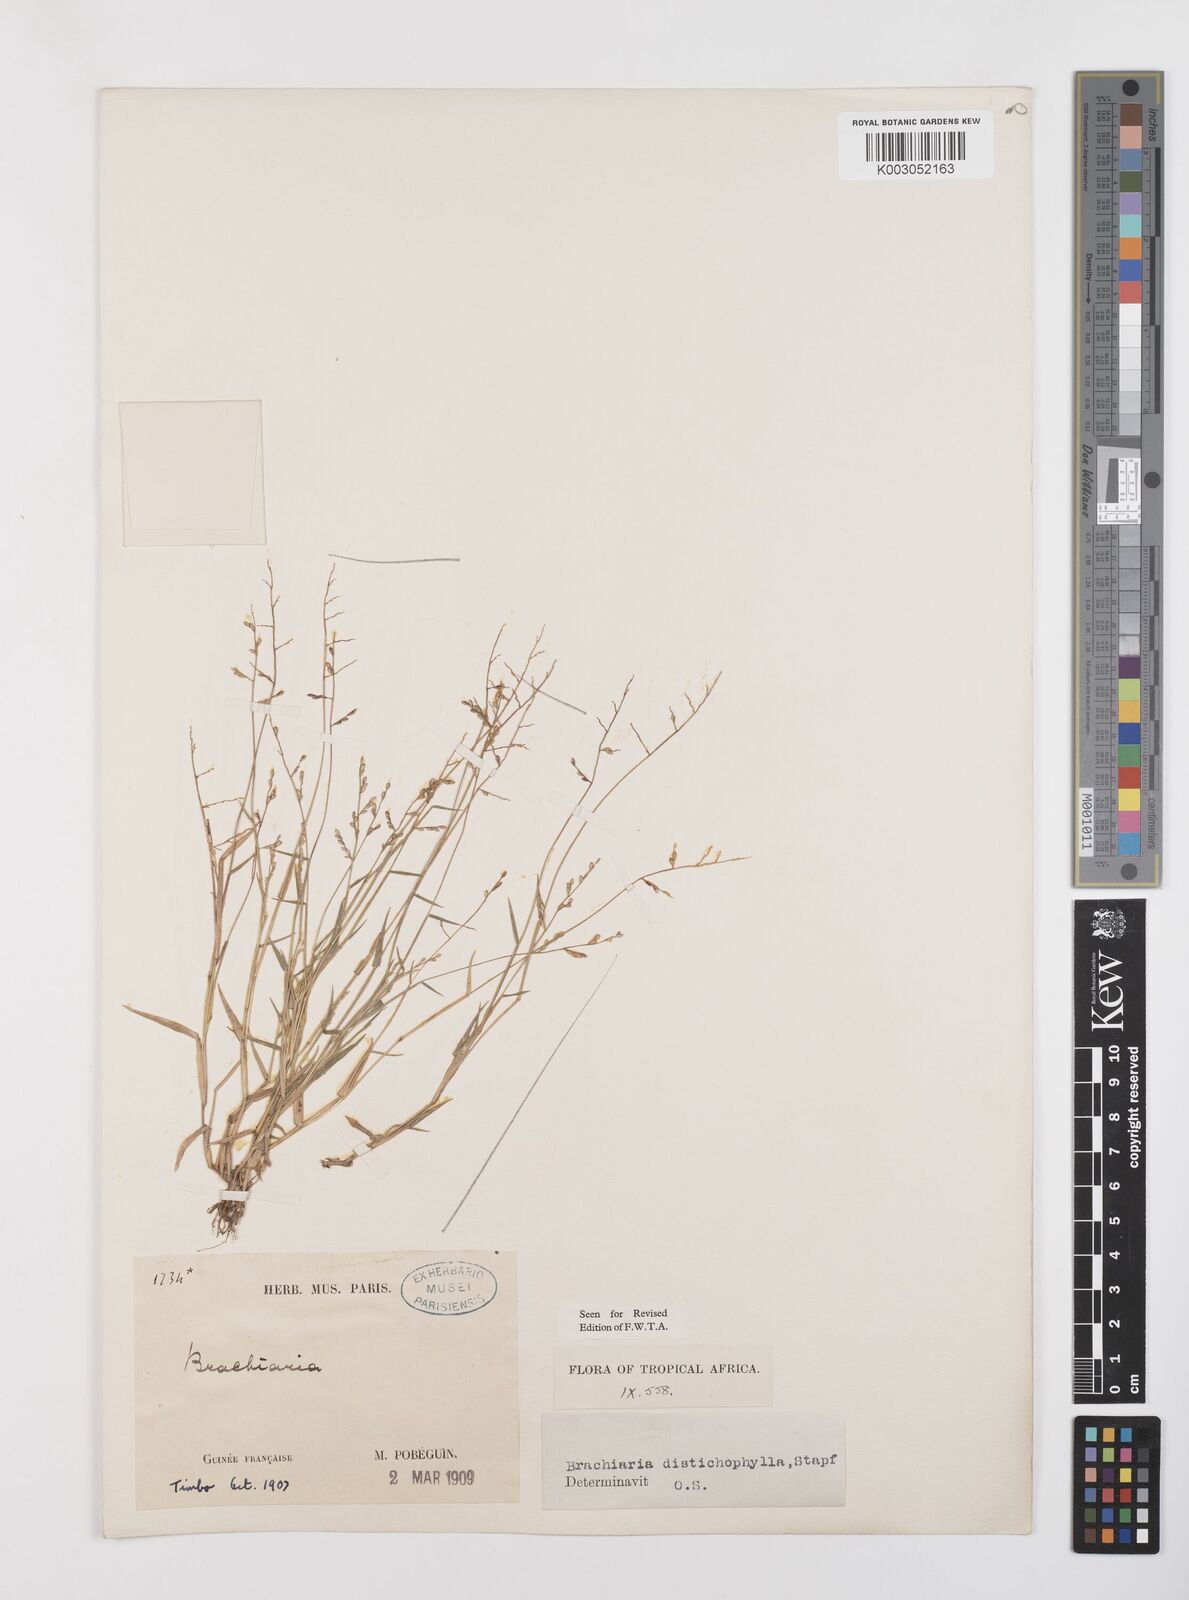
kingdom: Plantae
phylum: Tracheophyta
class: Liliopsida
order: Poales
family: Poaceae
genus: Urochloa
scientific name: Urochloa villosa
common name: Hairy signalgrass
